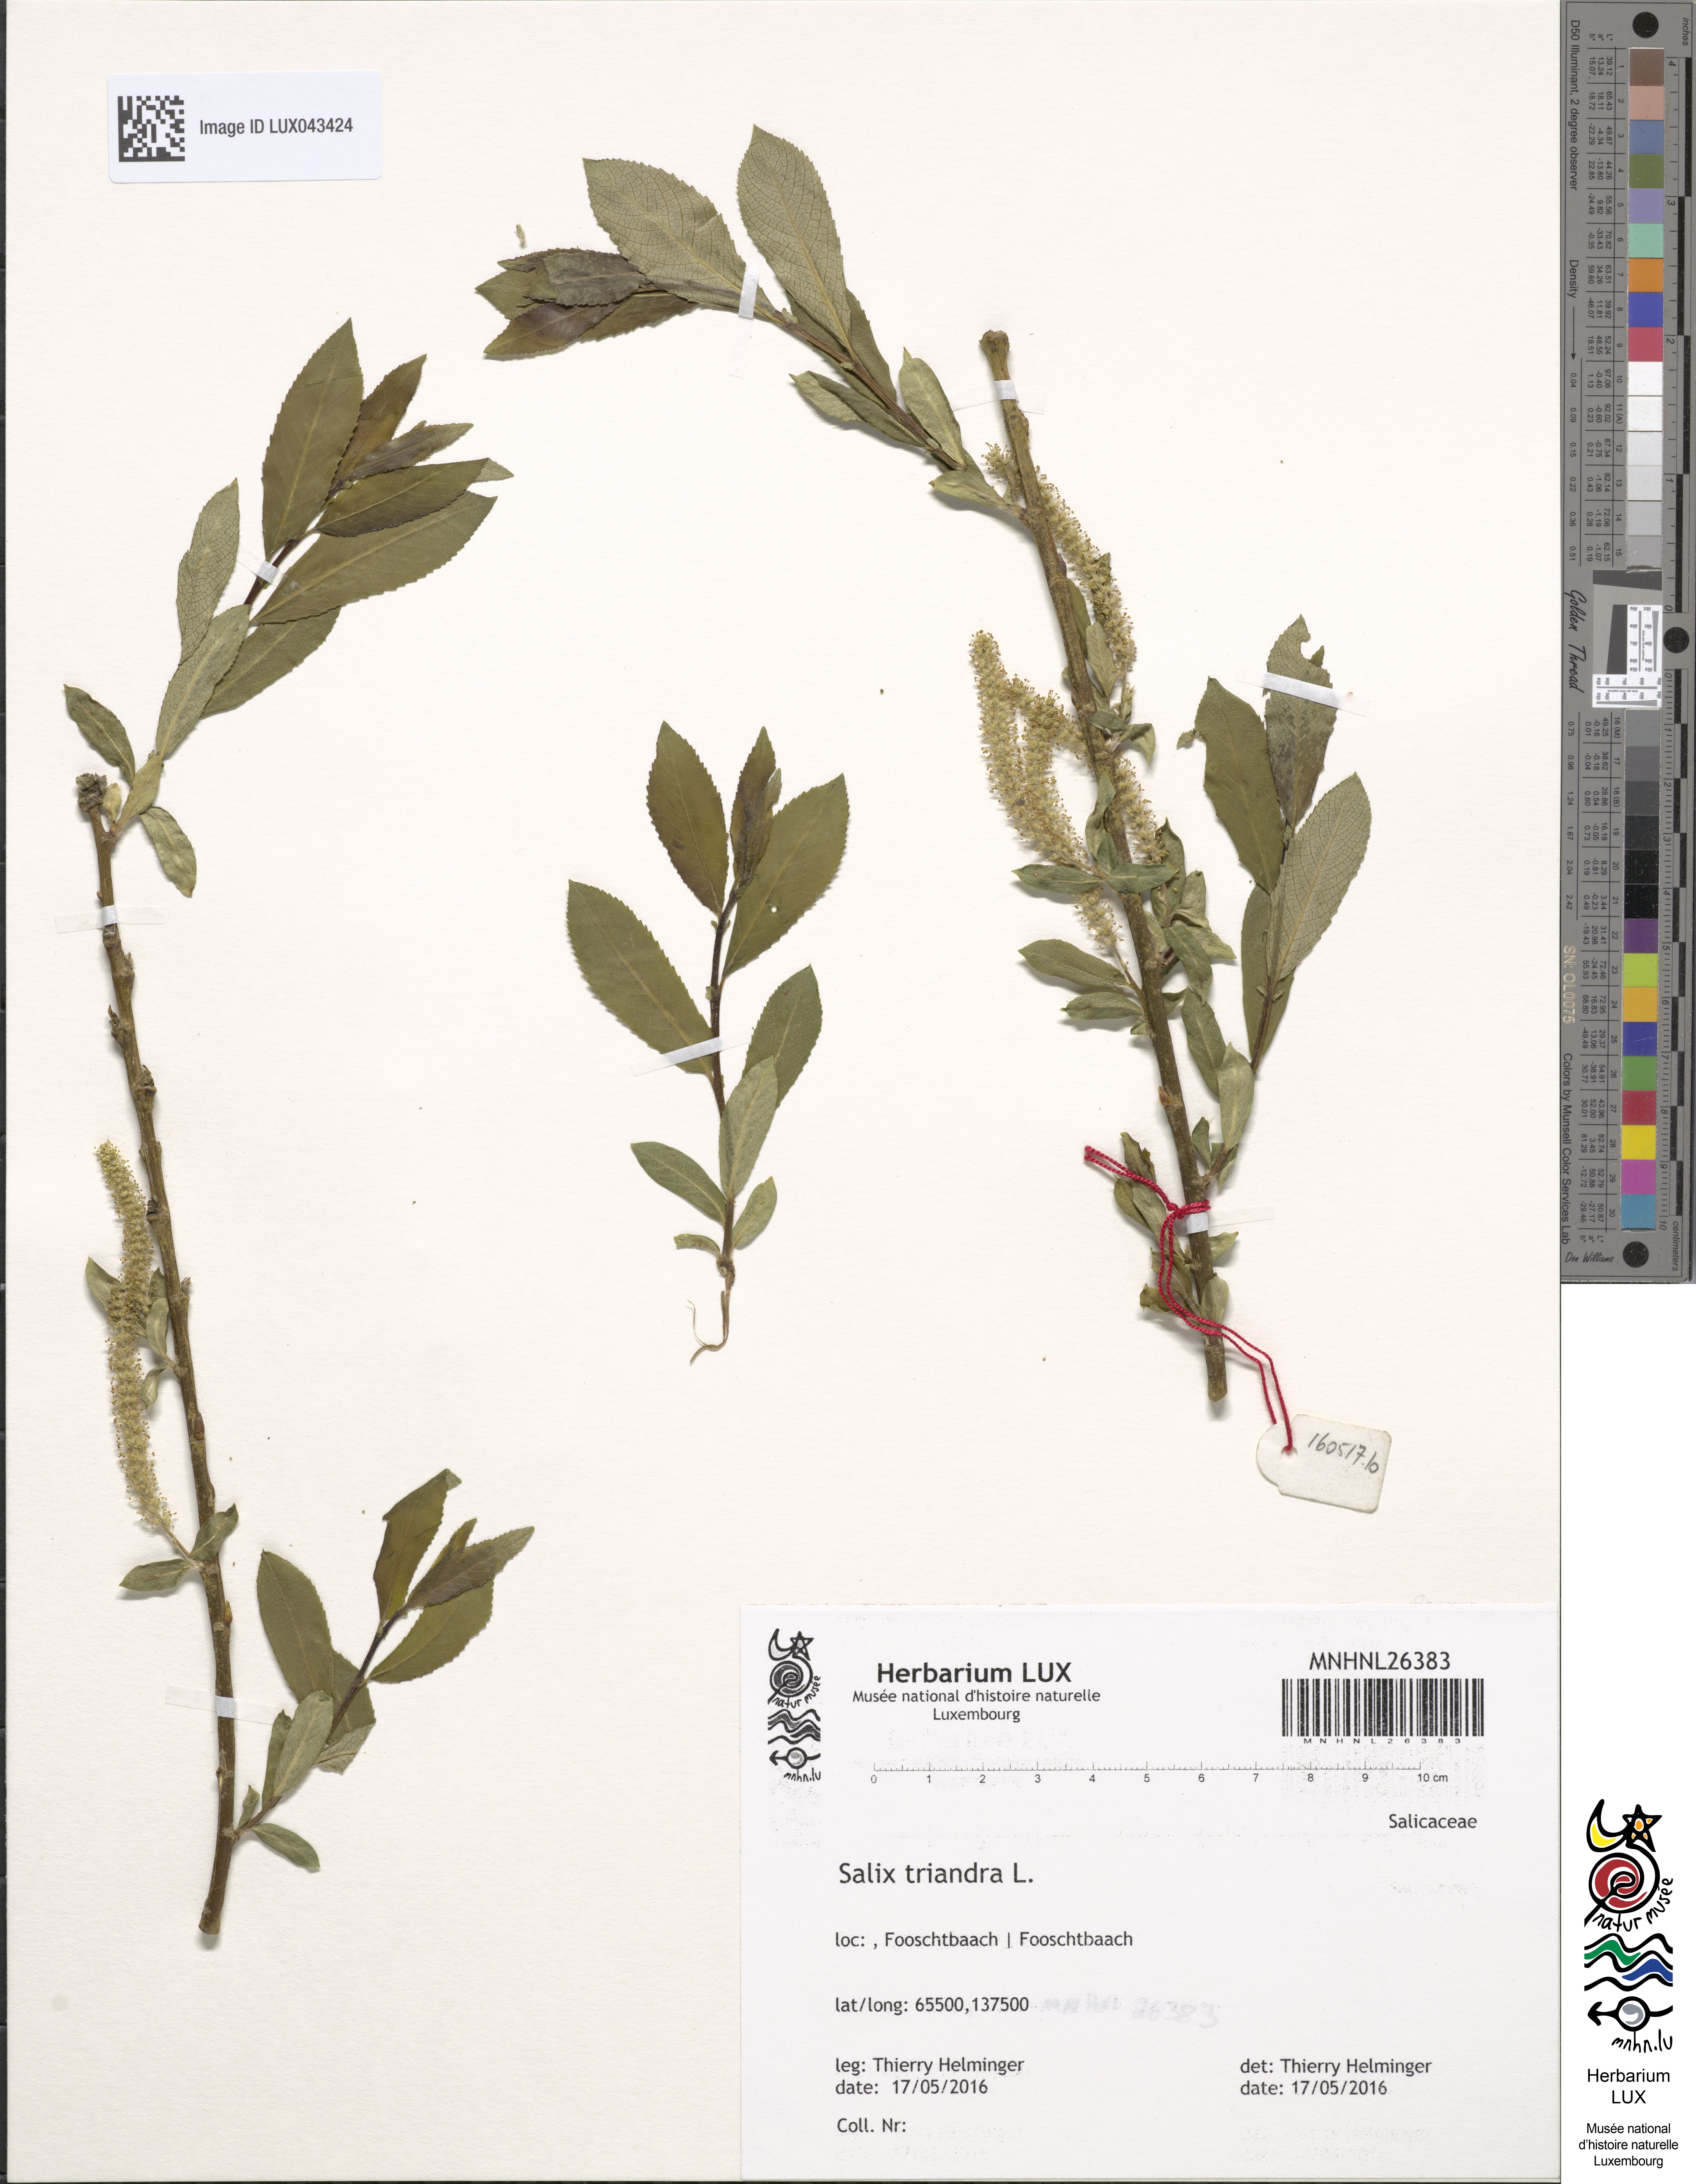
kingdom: Plantae
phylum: Tracheophyta
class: Magnoliopsida
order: Malpighiales
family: Salicaceae
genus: Salix
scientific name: Salix triandra
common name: Almond willow
